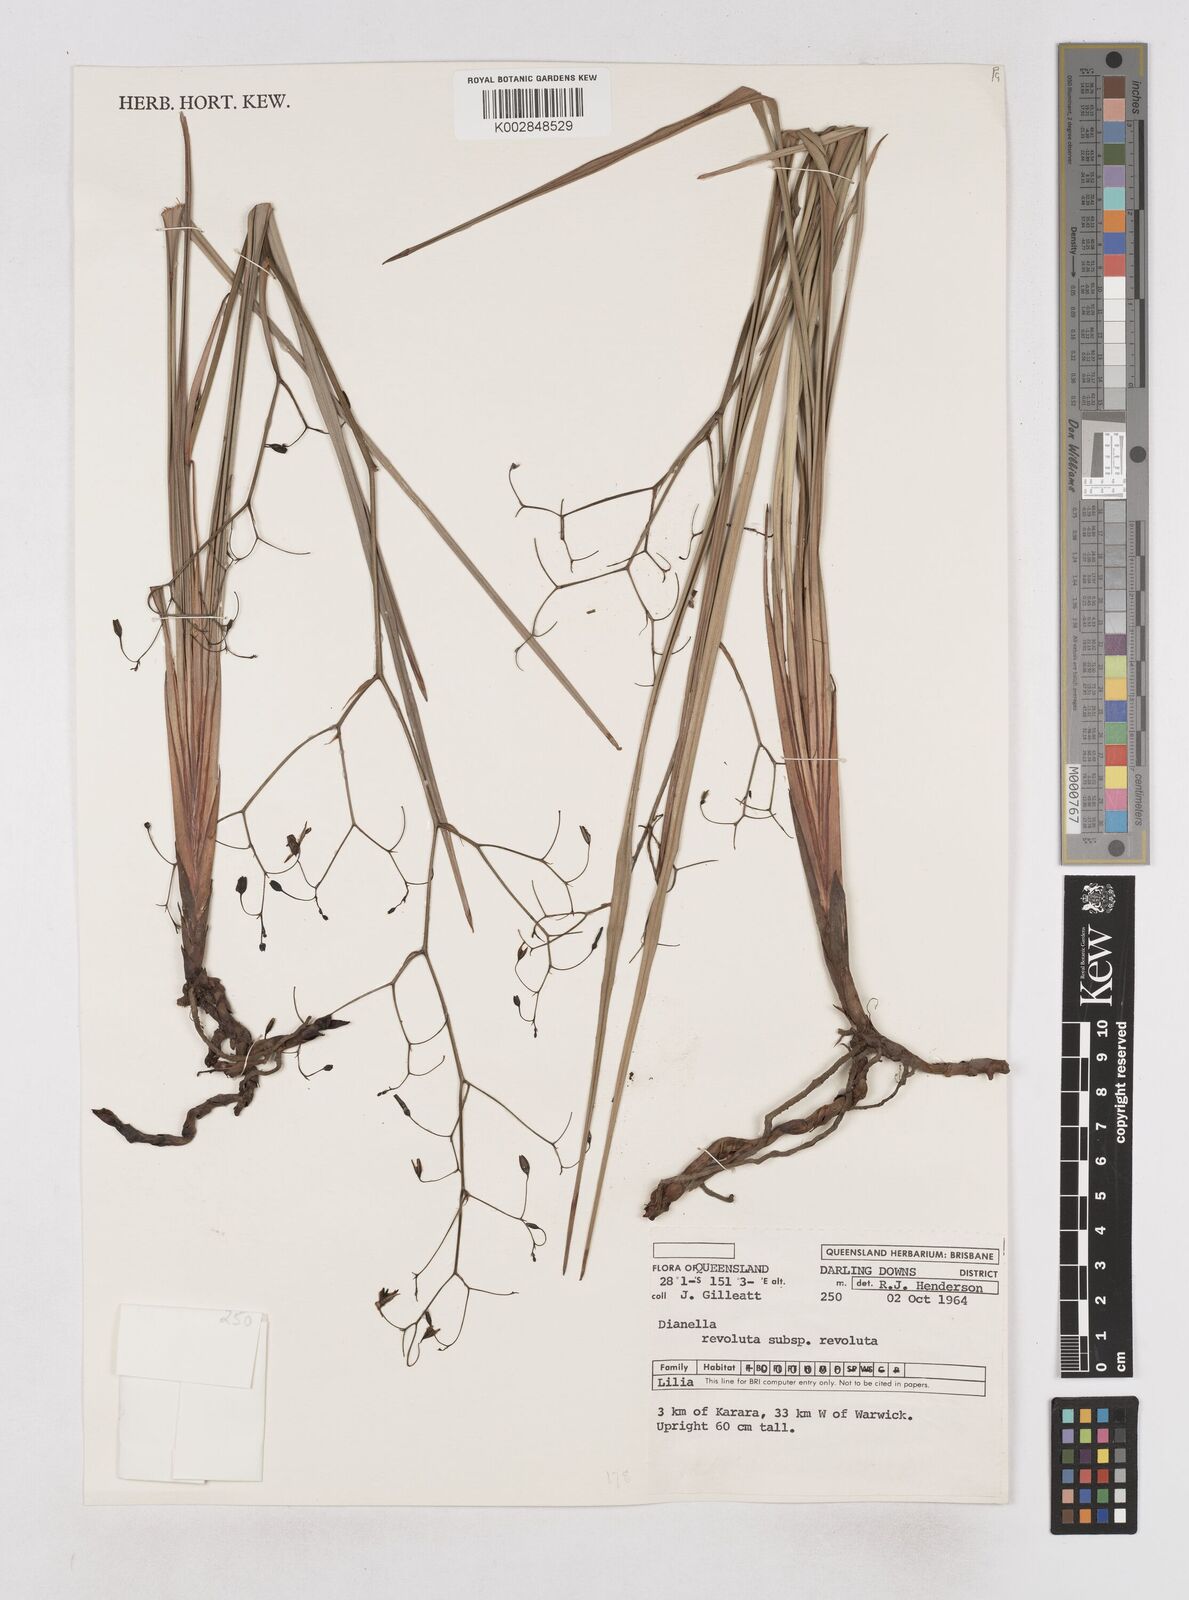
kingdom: Plantae
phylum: Tracheophyta
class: Liliopsida
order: Asparagales
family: Asphodelaceae
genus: Dianella
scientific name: Dianella revoluta
